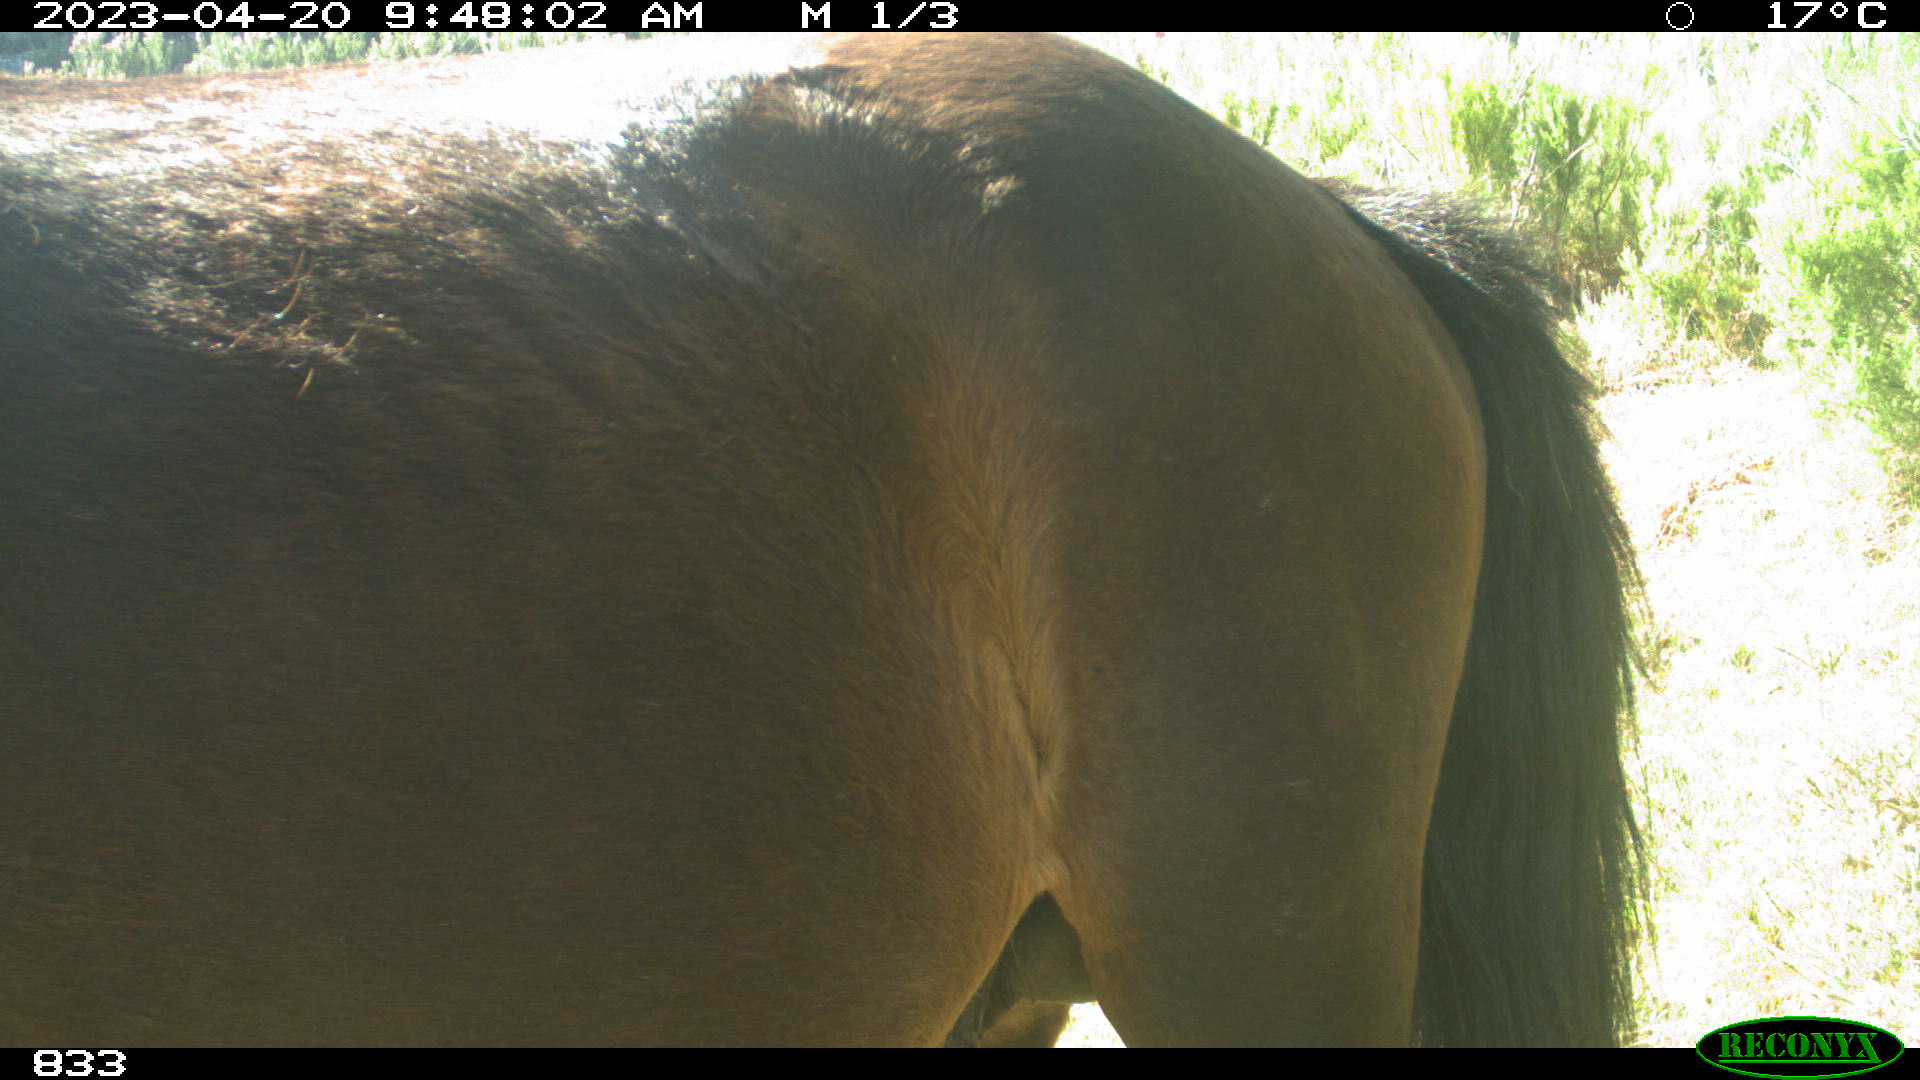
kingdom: Animalia
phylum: Chordata
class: Mammalia
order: Perissodactyla
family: Equidae
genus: Equus
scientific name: Equus caballus
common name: Horse
